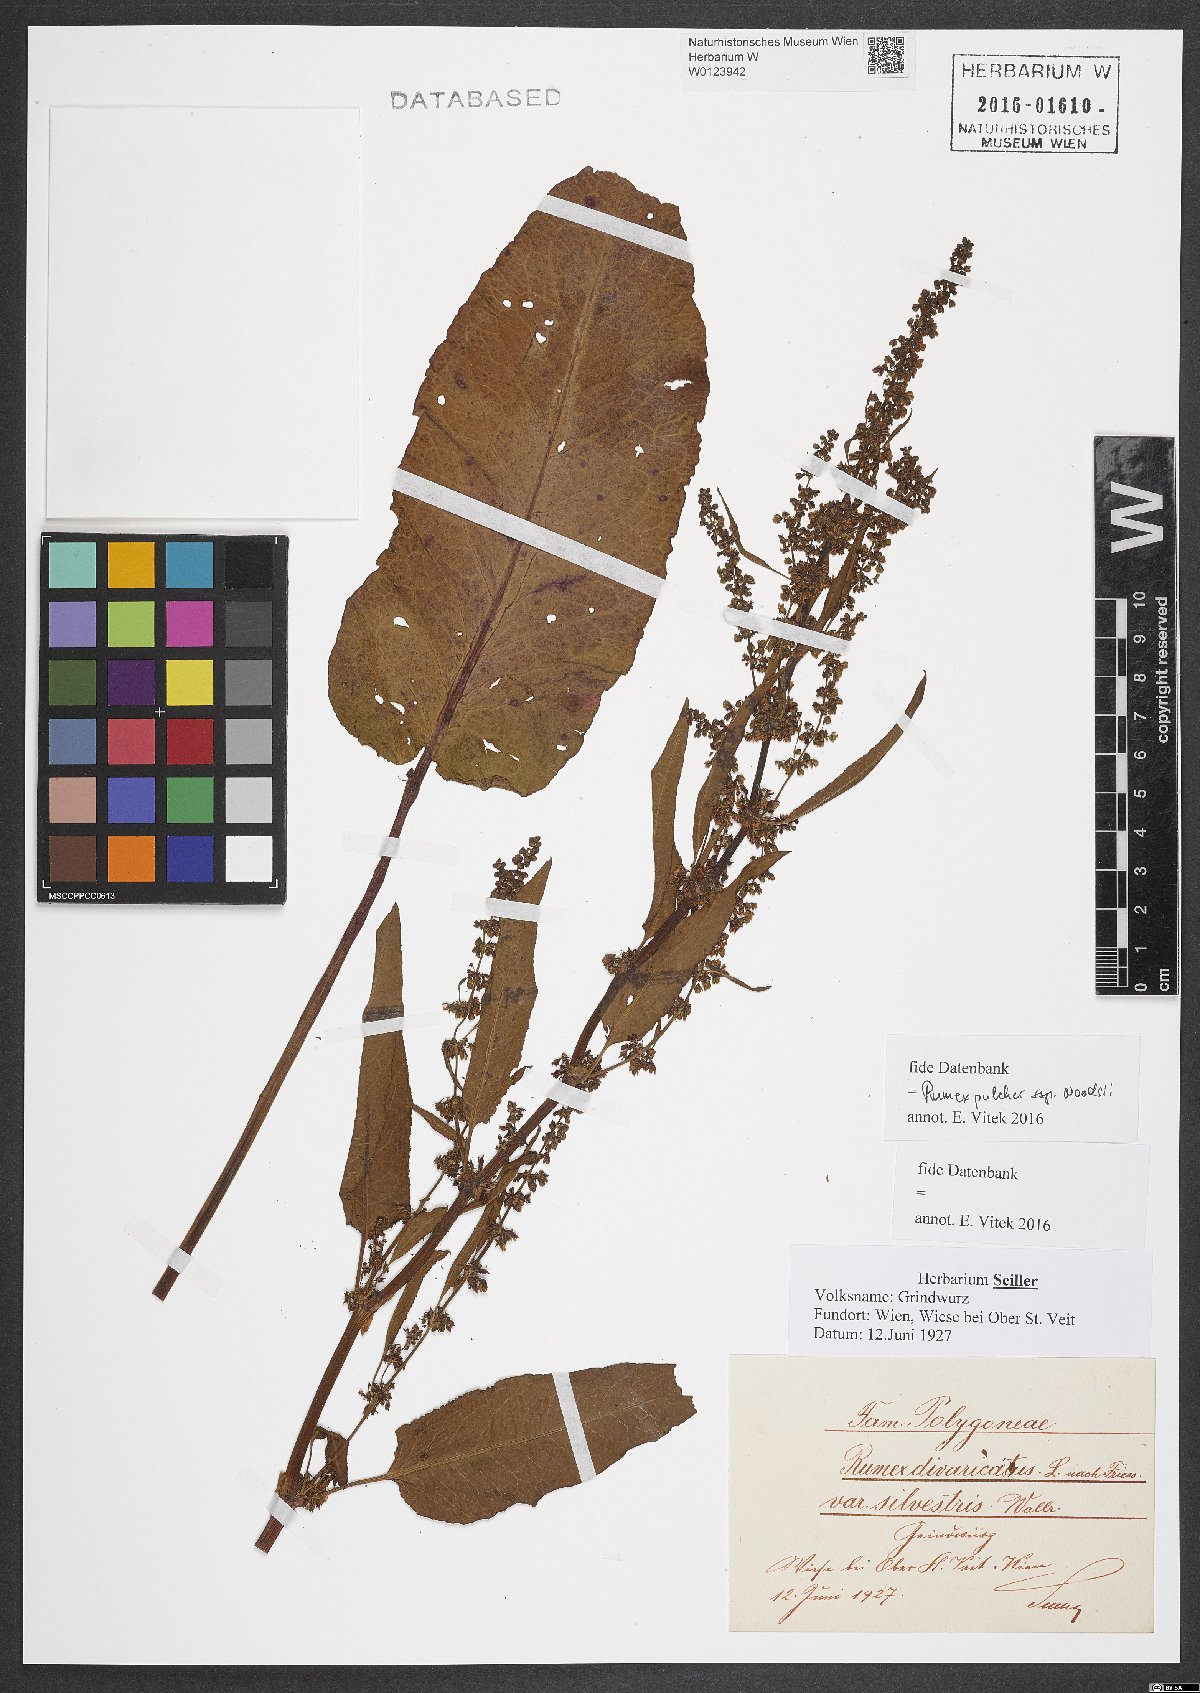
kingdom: Plantae
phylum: Tracheophyta
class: Magnoliopsida
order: Caryophyllales
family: Polygonaceae
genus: Rumex
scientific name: Rumex pulcher
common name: Fiddle dock
